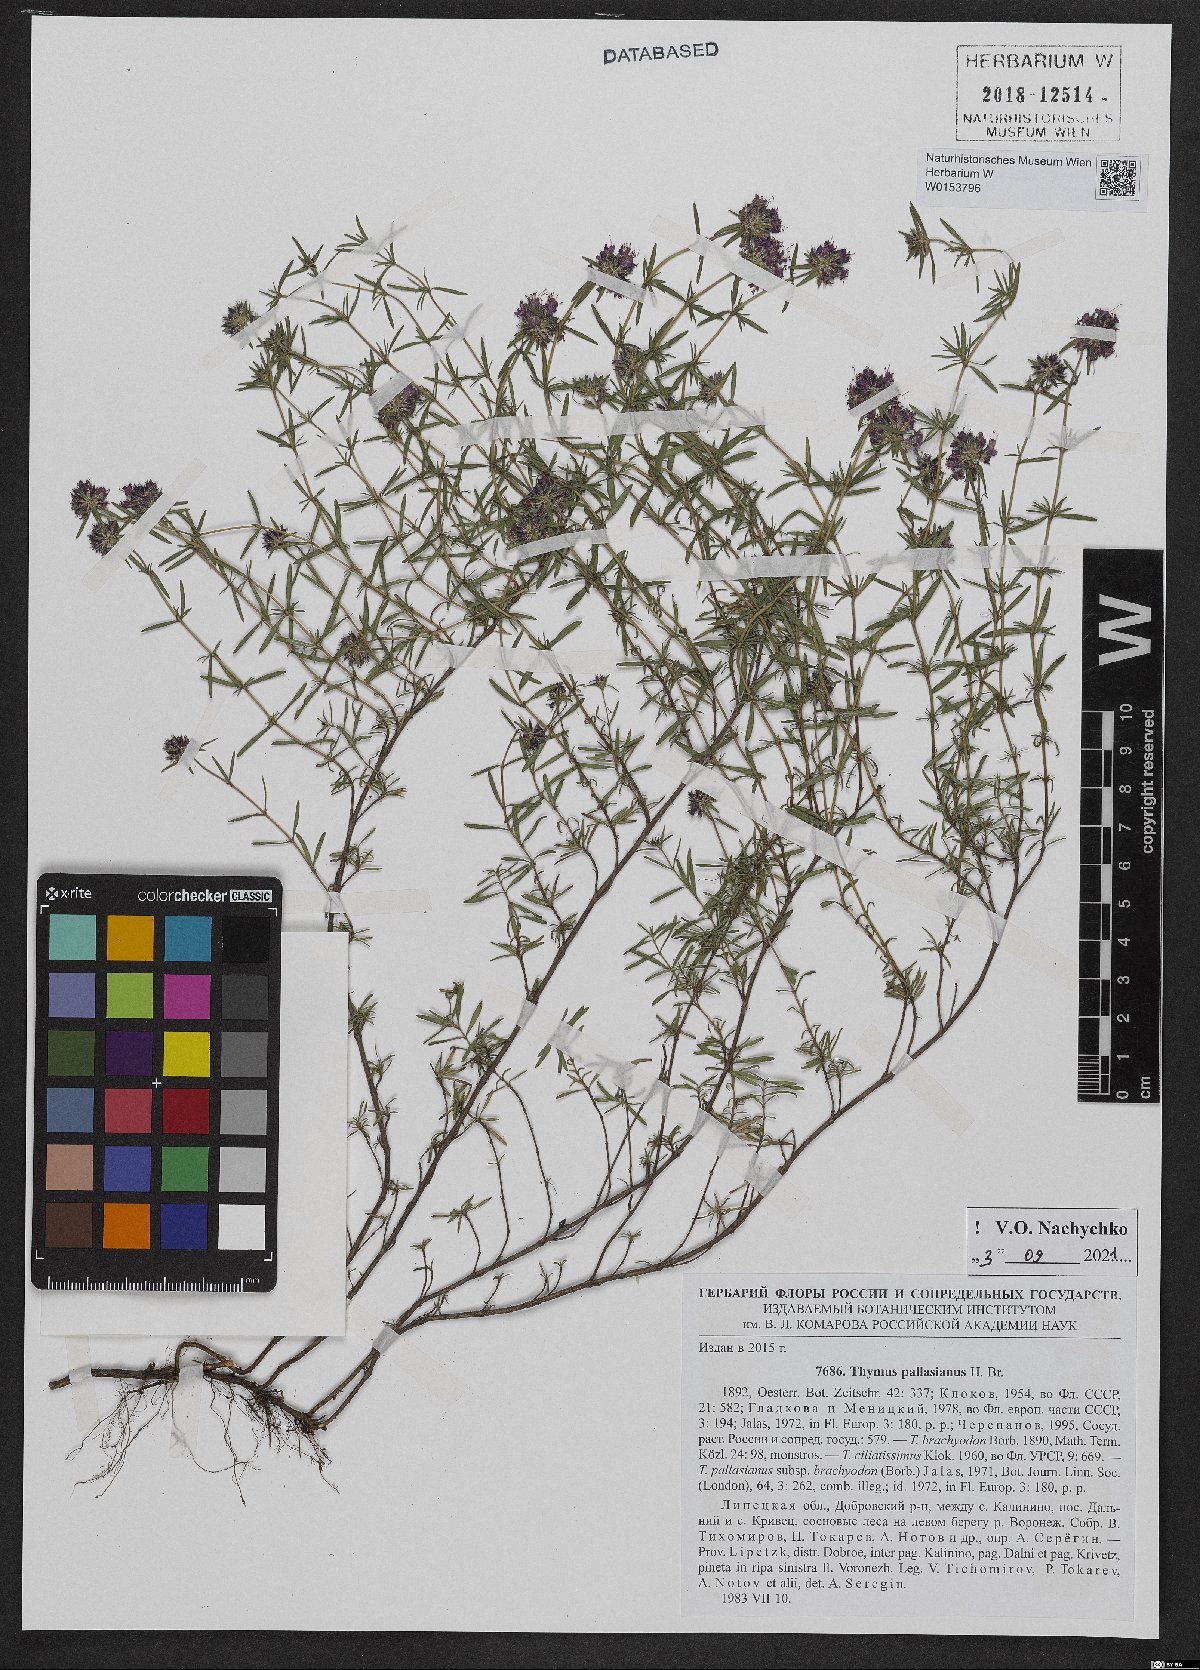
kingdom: Plantae
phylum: Tracheophyta
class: Magnoliopsida
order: Lamiales
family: Lamiaceae
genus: Thymus
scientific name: Thymus pallasianus
